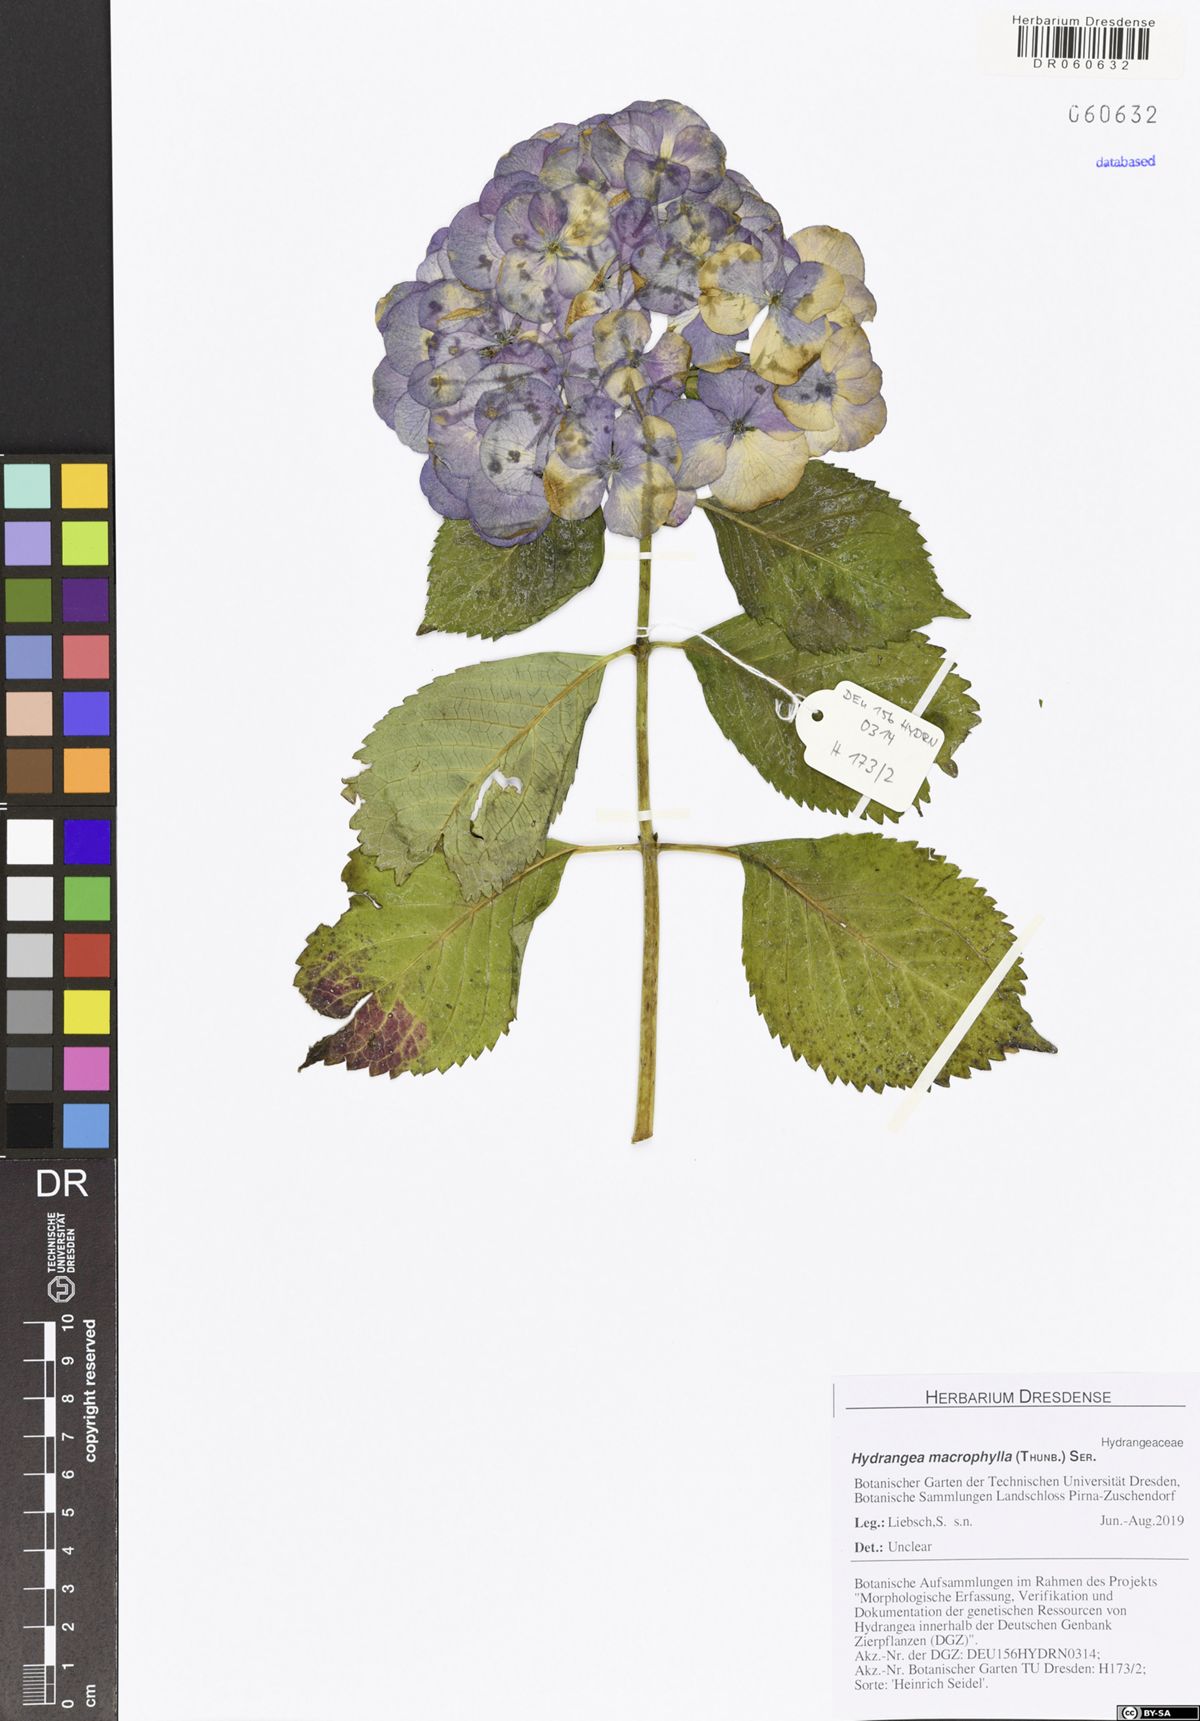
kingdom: Plantae
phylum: Tracheophyta
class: Magnoliopsida
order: Cornales
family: Hydrangeaceae
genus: Hydrangea
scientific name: Hydrangea macrophylla
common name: Hydrangea
